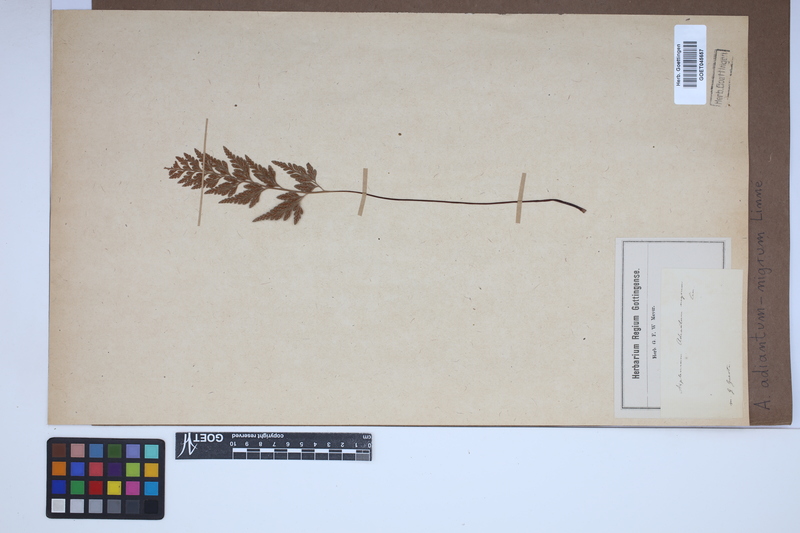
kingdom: Plantae
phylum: Tracheophyta
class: Polypodiopsida
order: Polypodiales
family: Aspleniaceae
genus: Asplenium
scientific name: Asplenium adiantum-nigrum
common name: Black spleenwort
